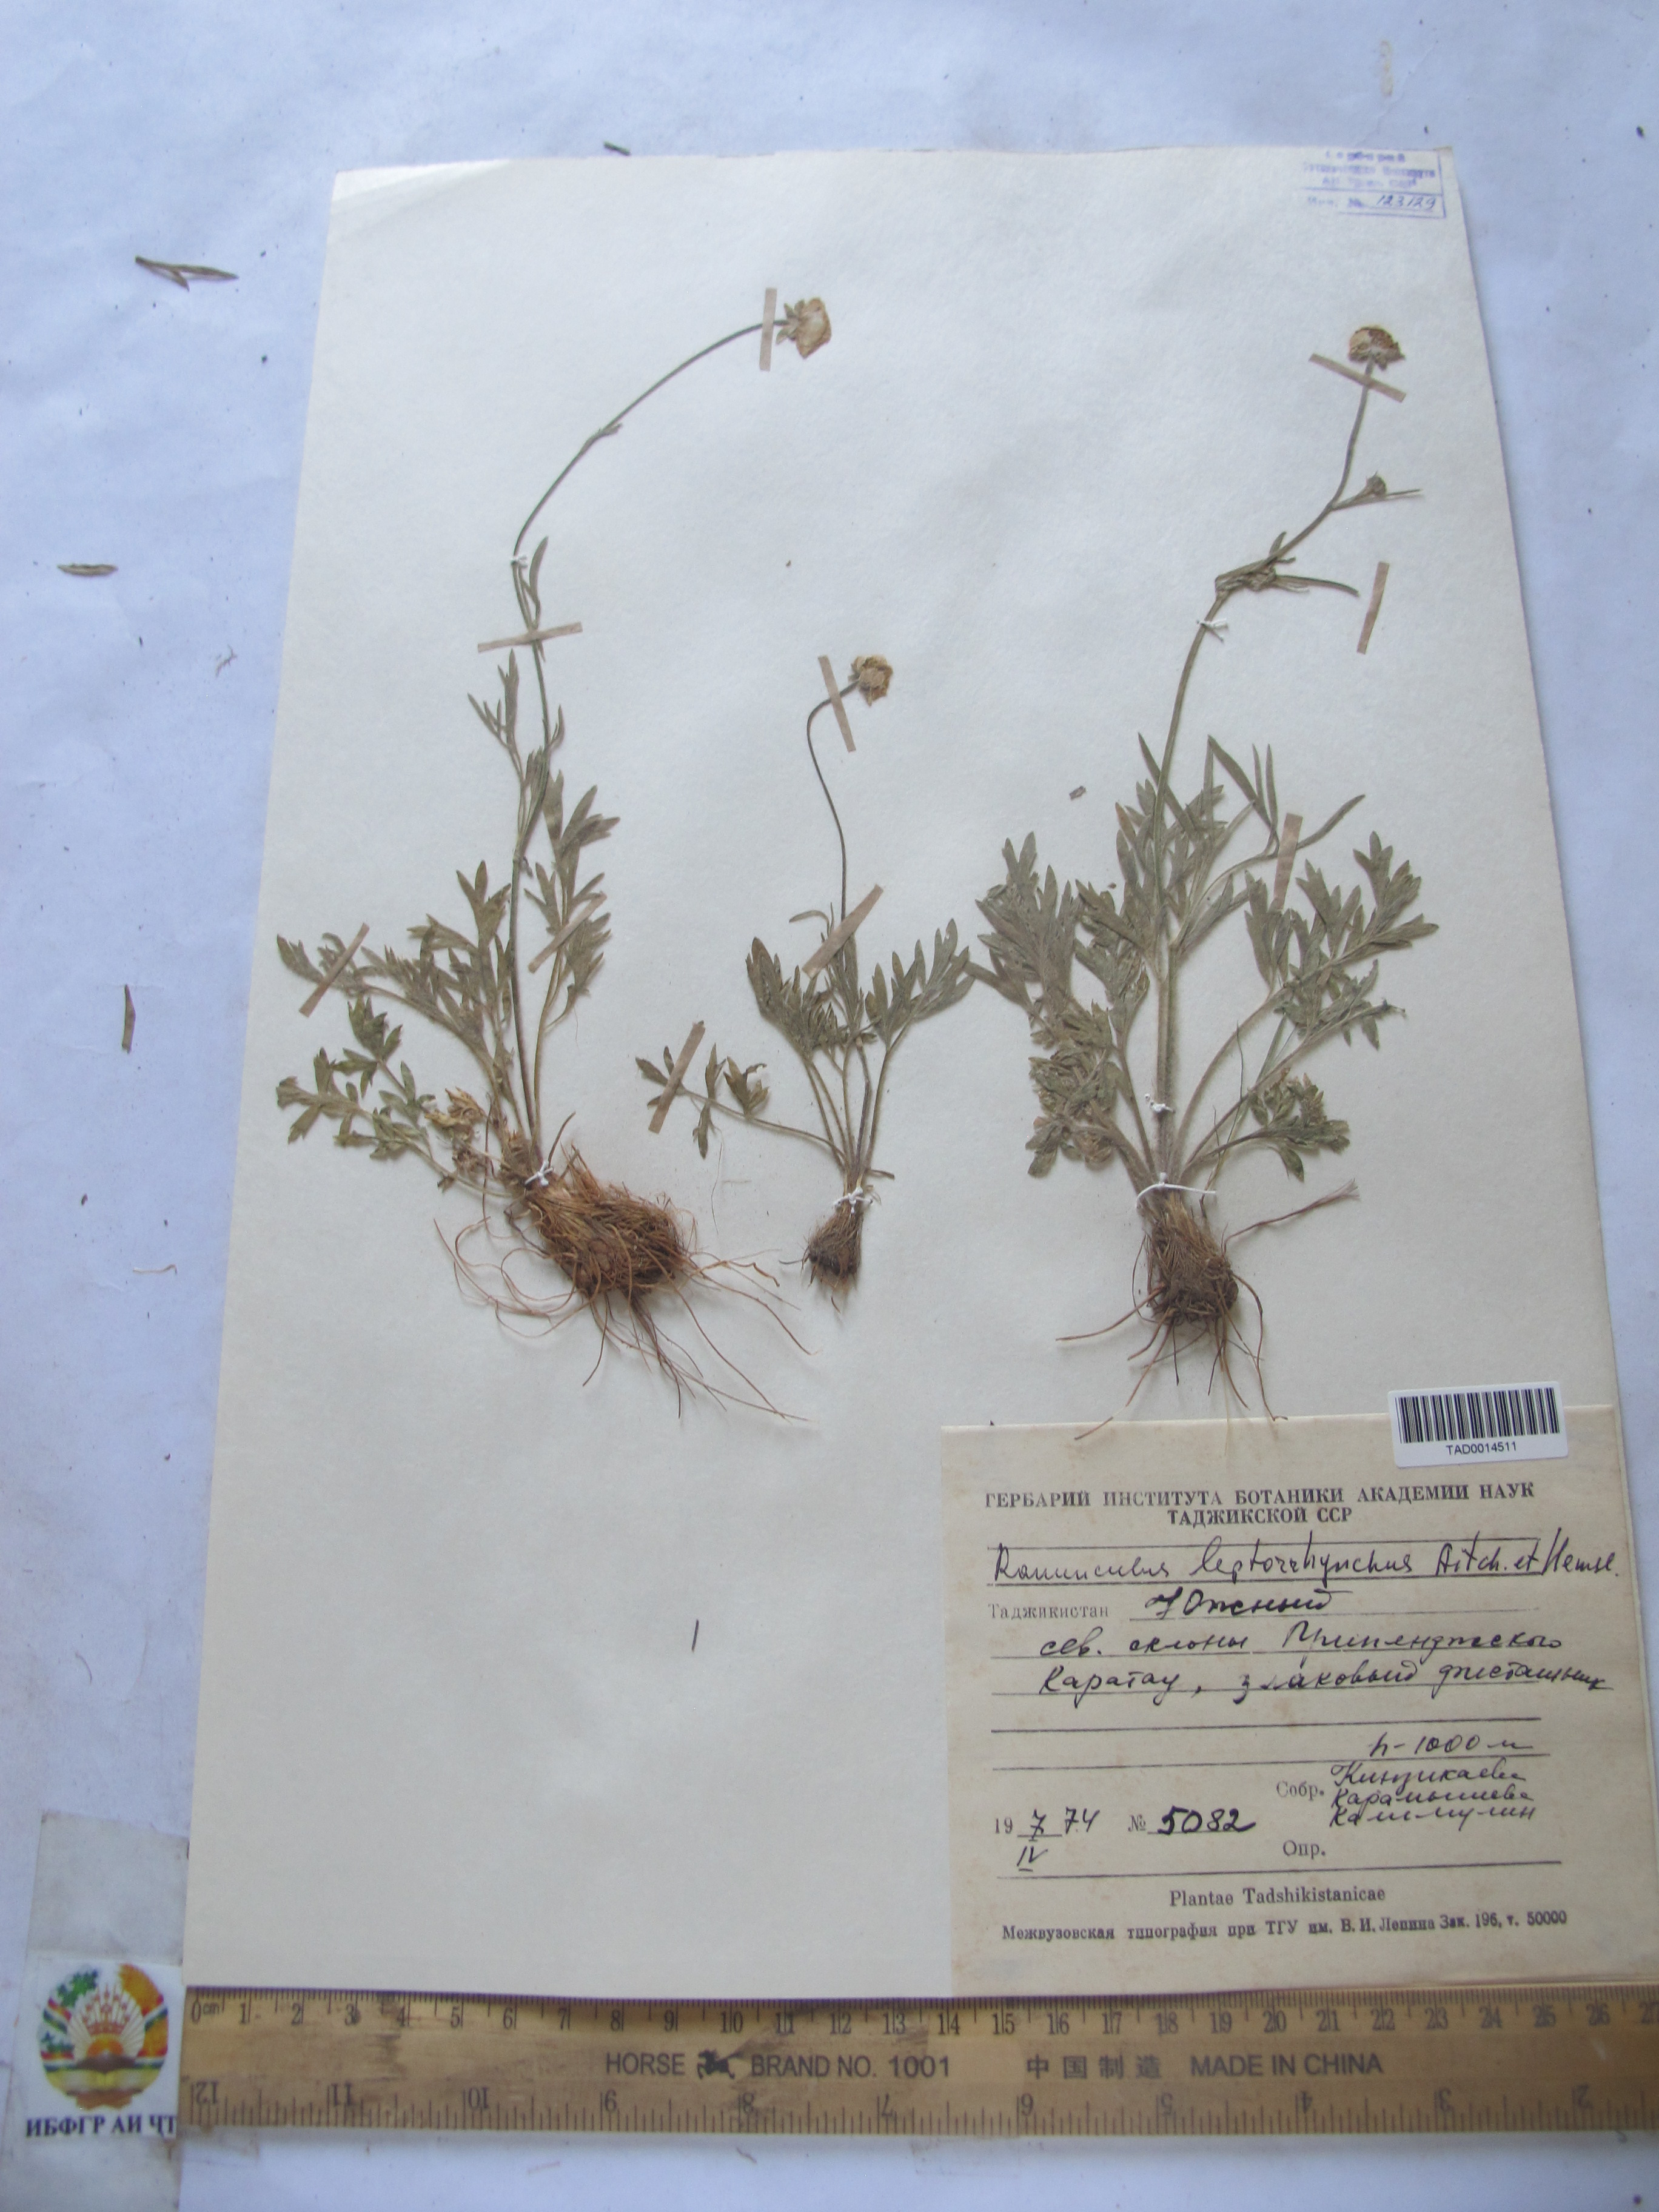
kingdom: Plantae
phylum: Tracheophyta
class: Magnoliopsida
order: Ranunculales
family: Ranunculaceae
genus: Ranunculus
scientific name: Ranunculus leptorrhynchus
